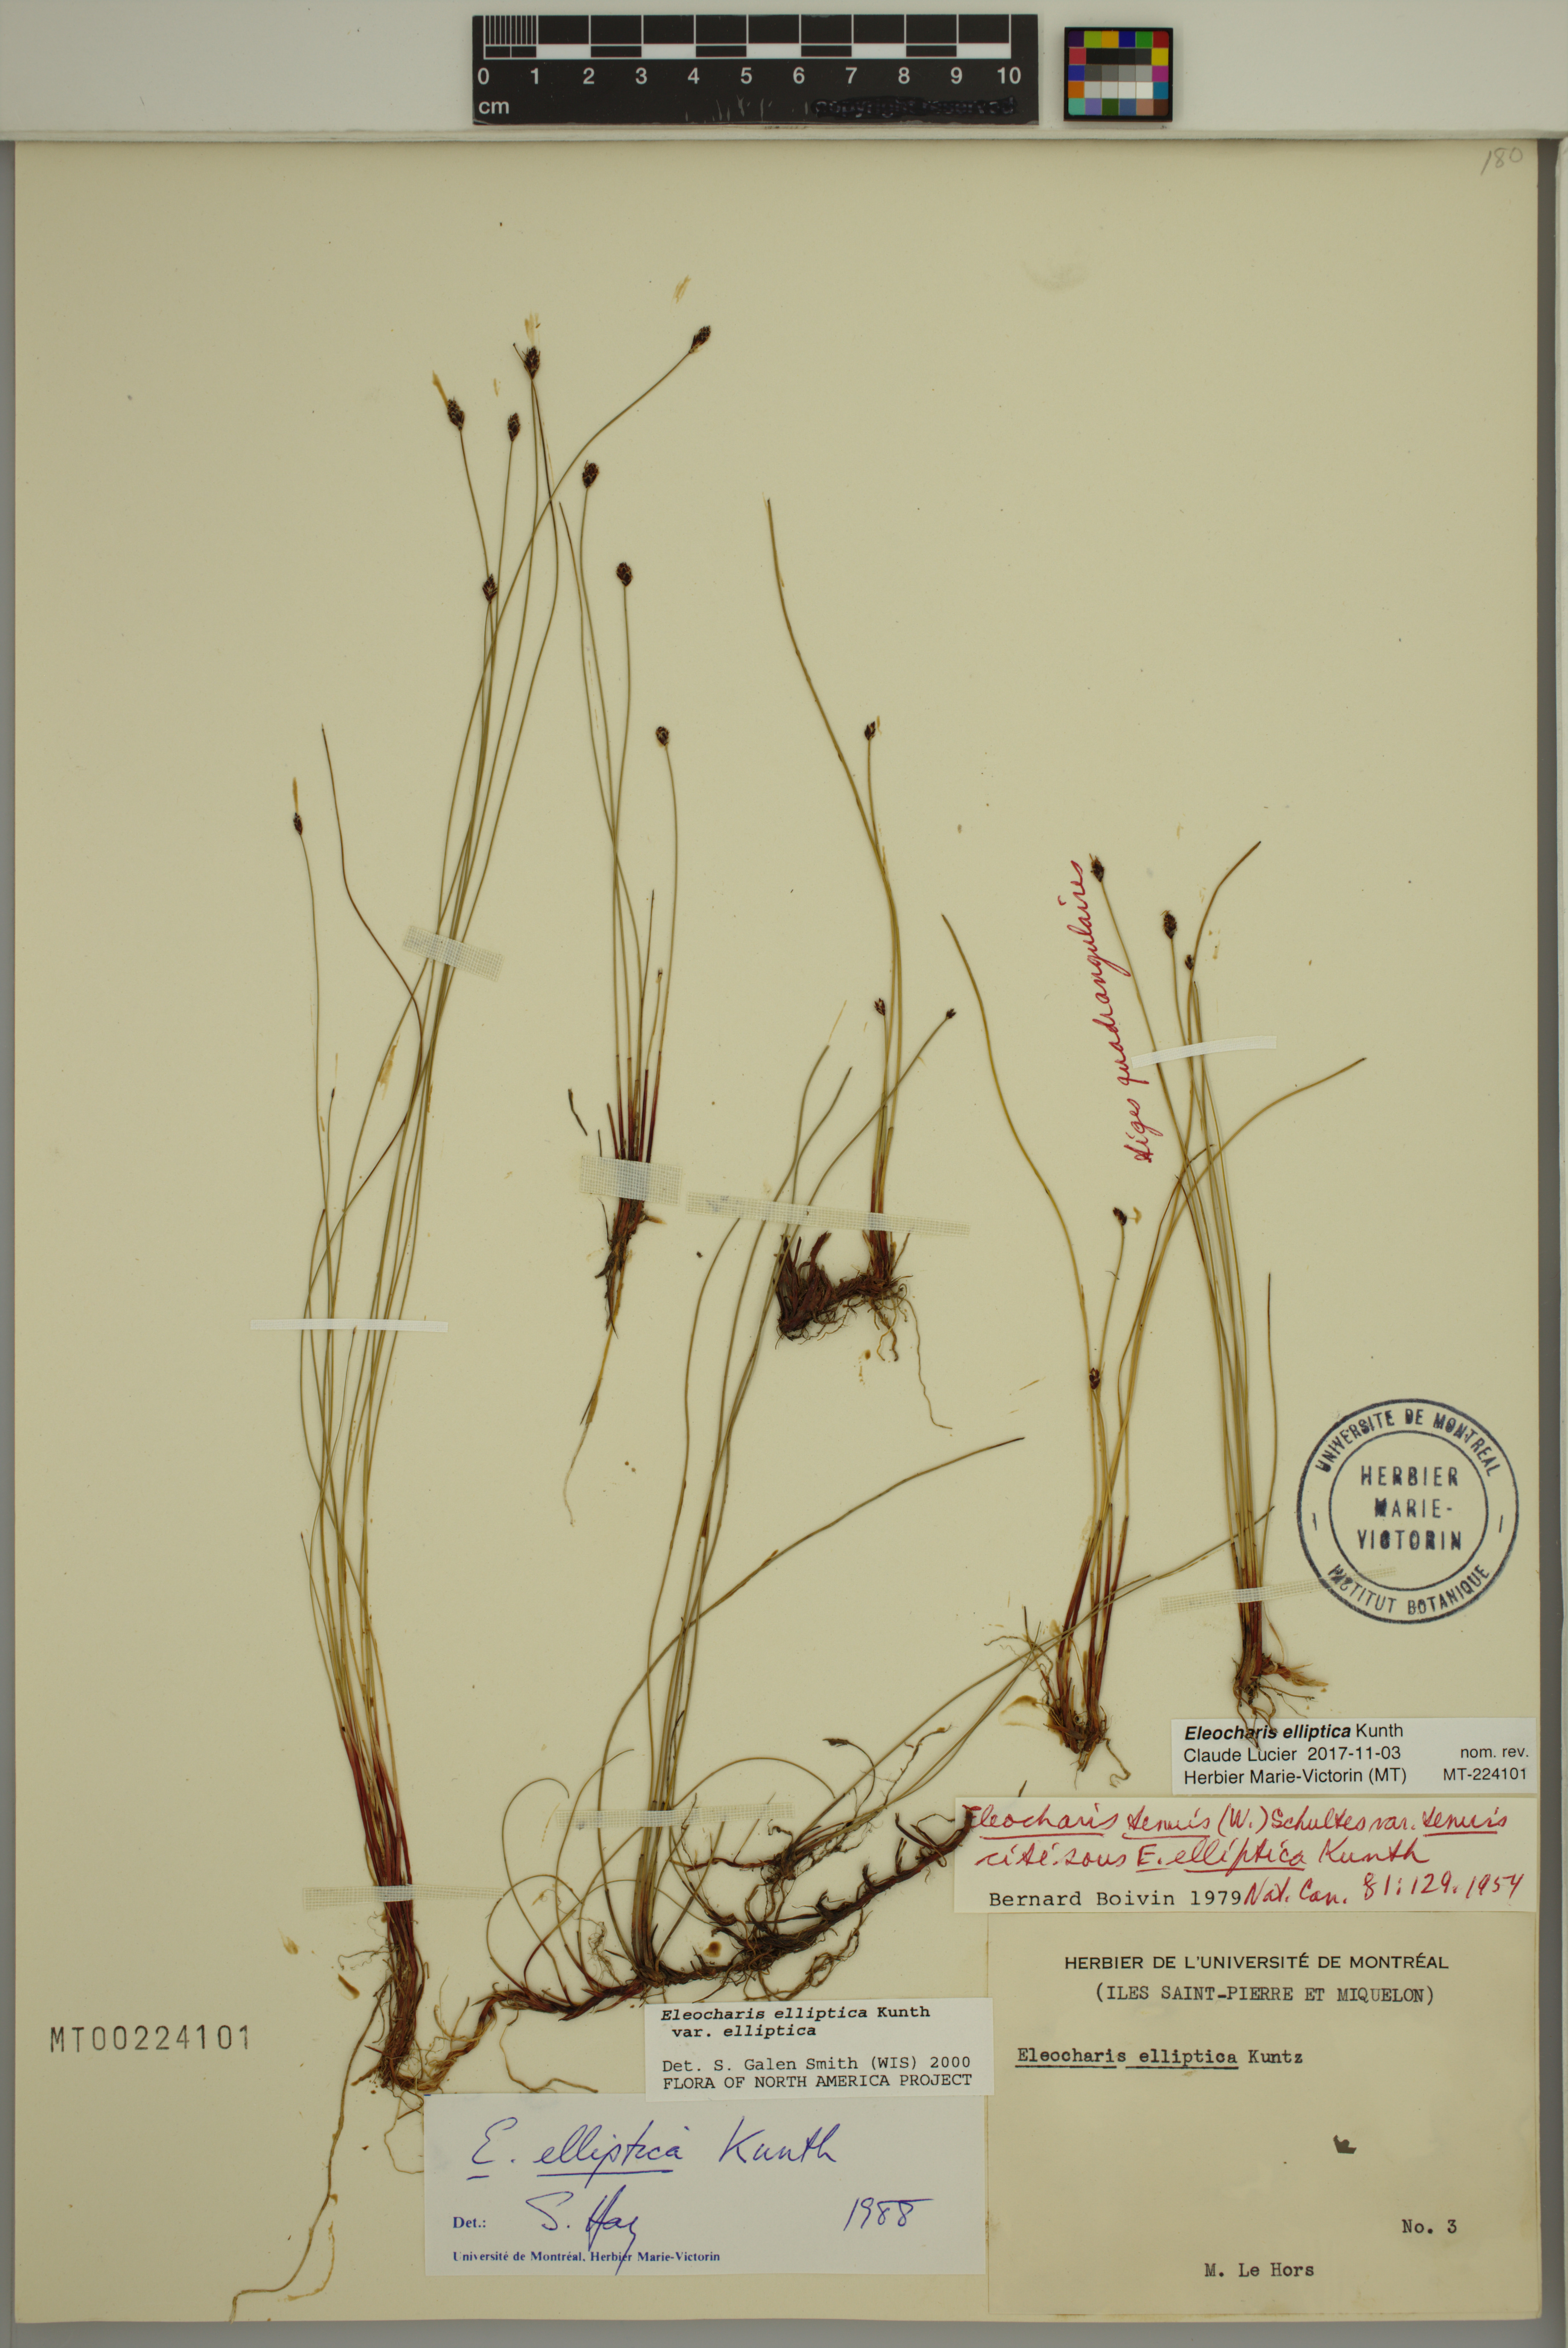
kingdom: Plantae
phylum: Tracheophyta
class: Liliopsida
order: Poales
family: Cyperaceae
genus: Eleocharis
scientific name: Eleocharis elliptica
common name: Capitate spikerush
